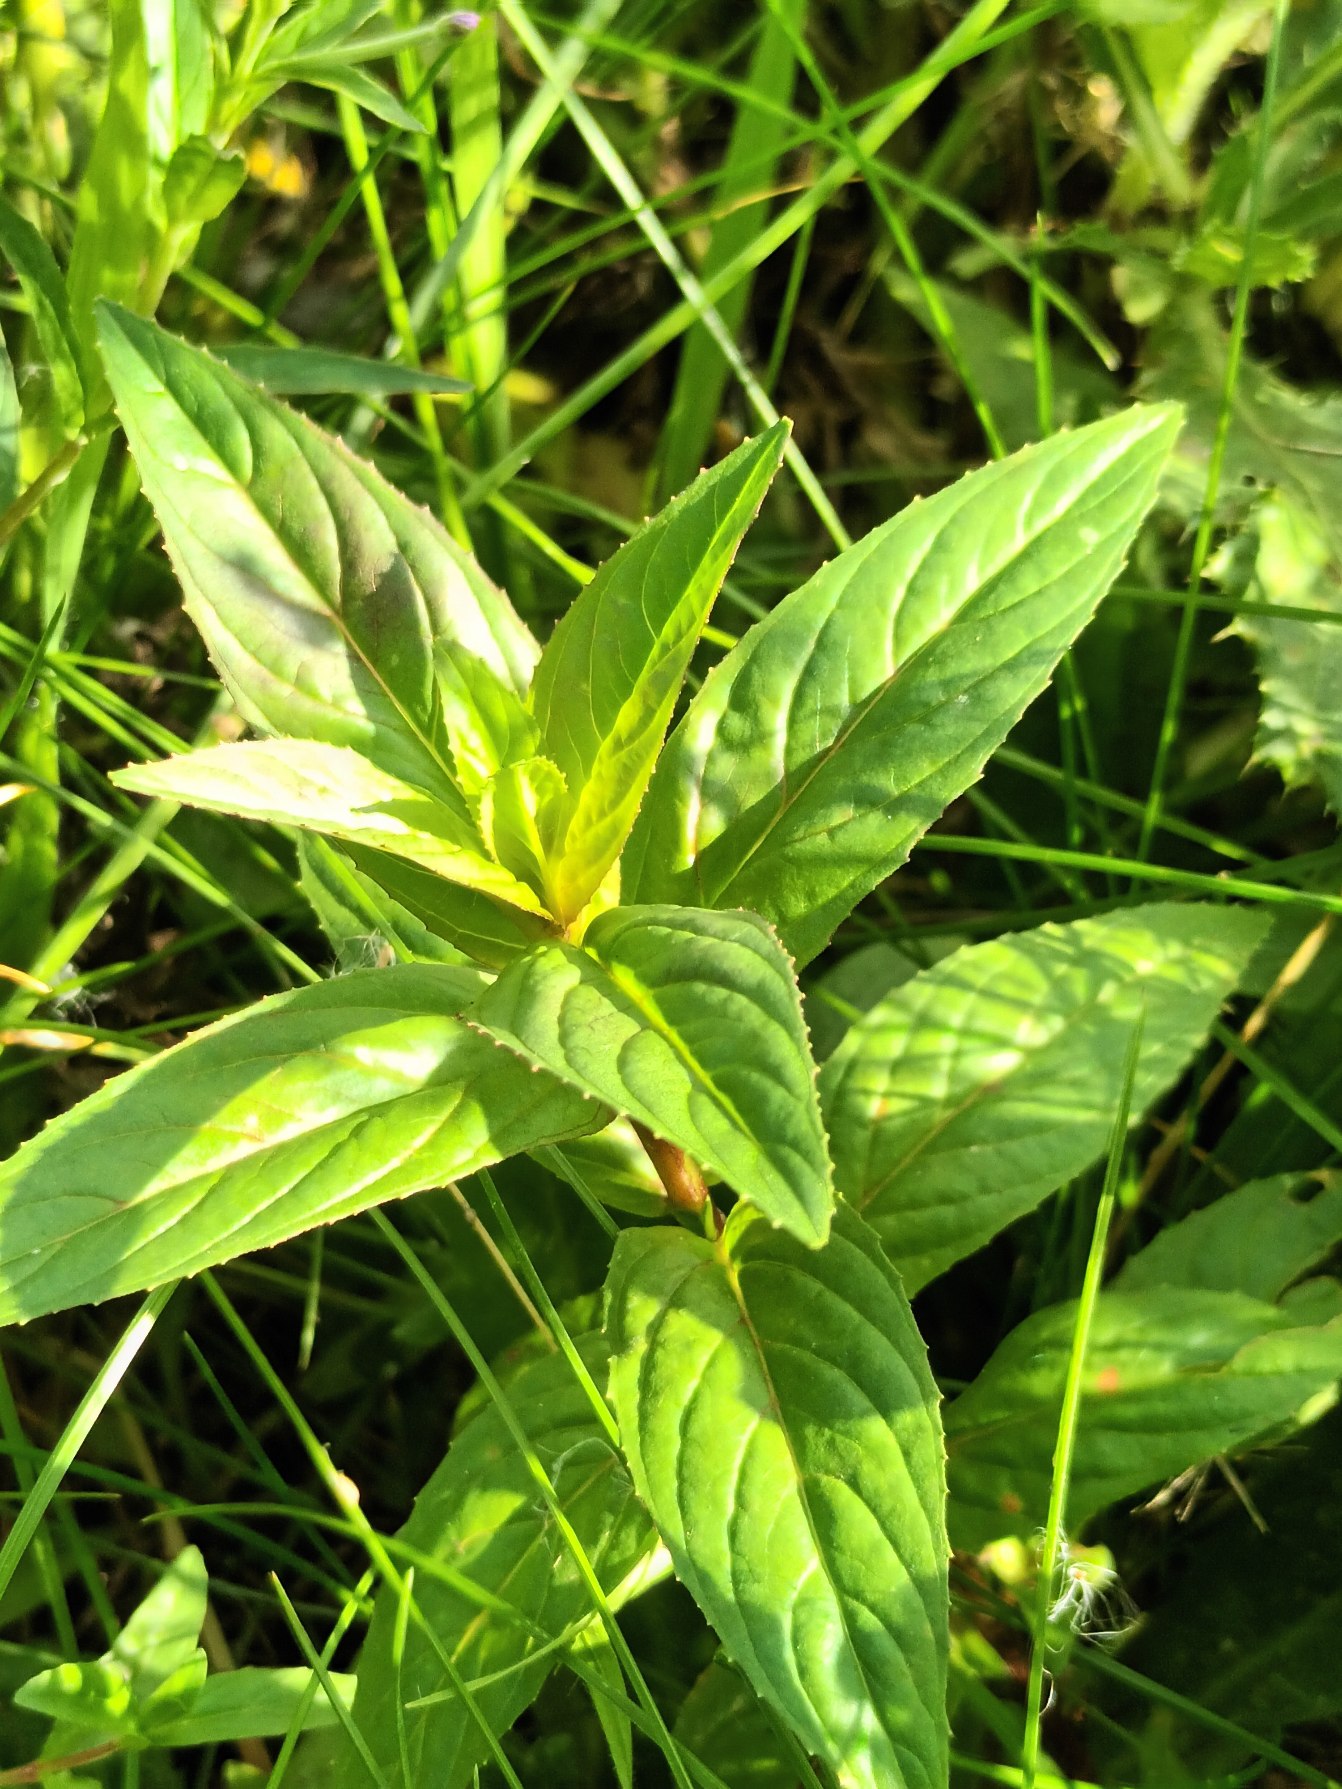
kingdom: Plantae
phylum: Tracheophyta
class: Magnoliopsida
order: Myrtales
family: Onagraceae
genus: Epilobium
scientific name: Epilobium ciliatum
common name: Alaska-dueurt
